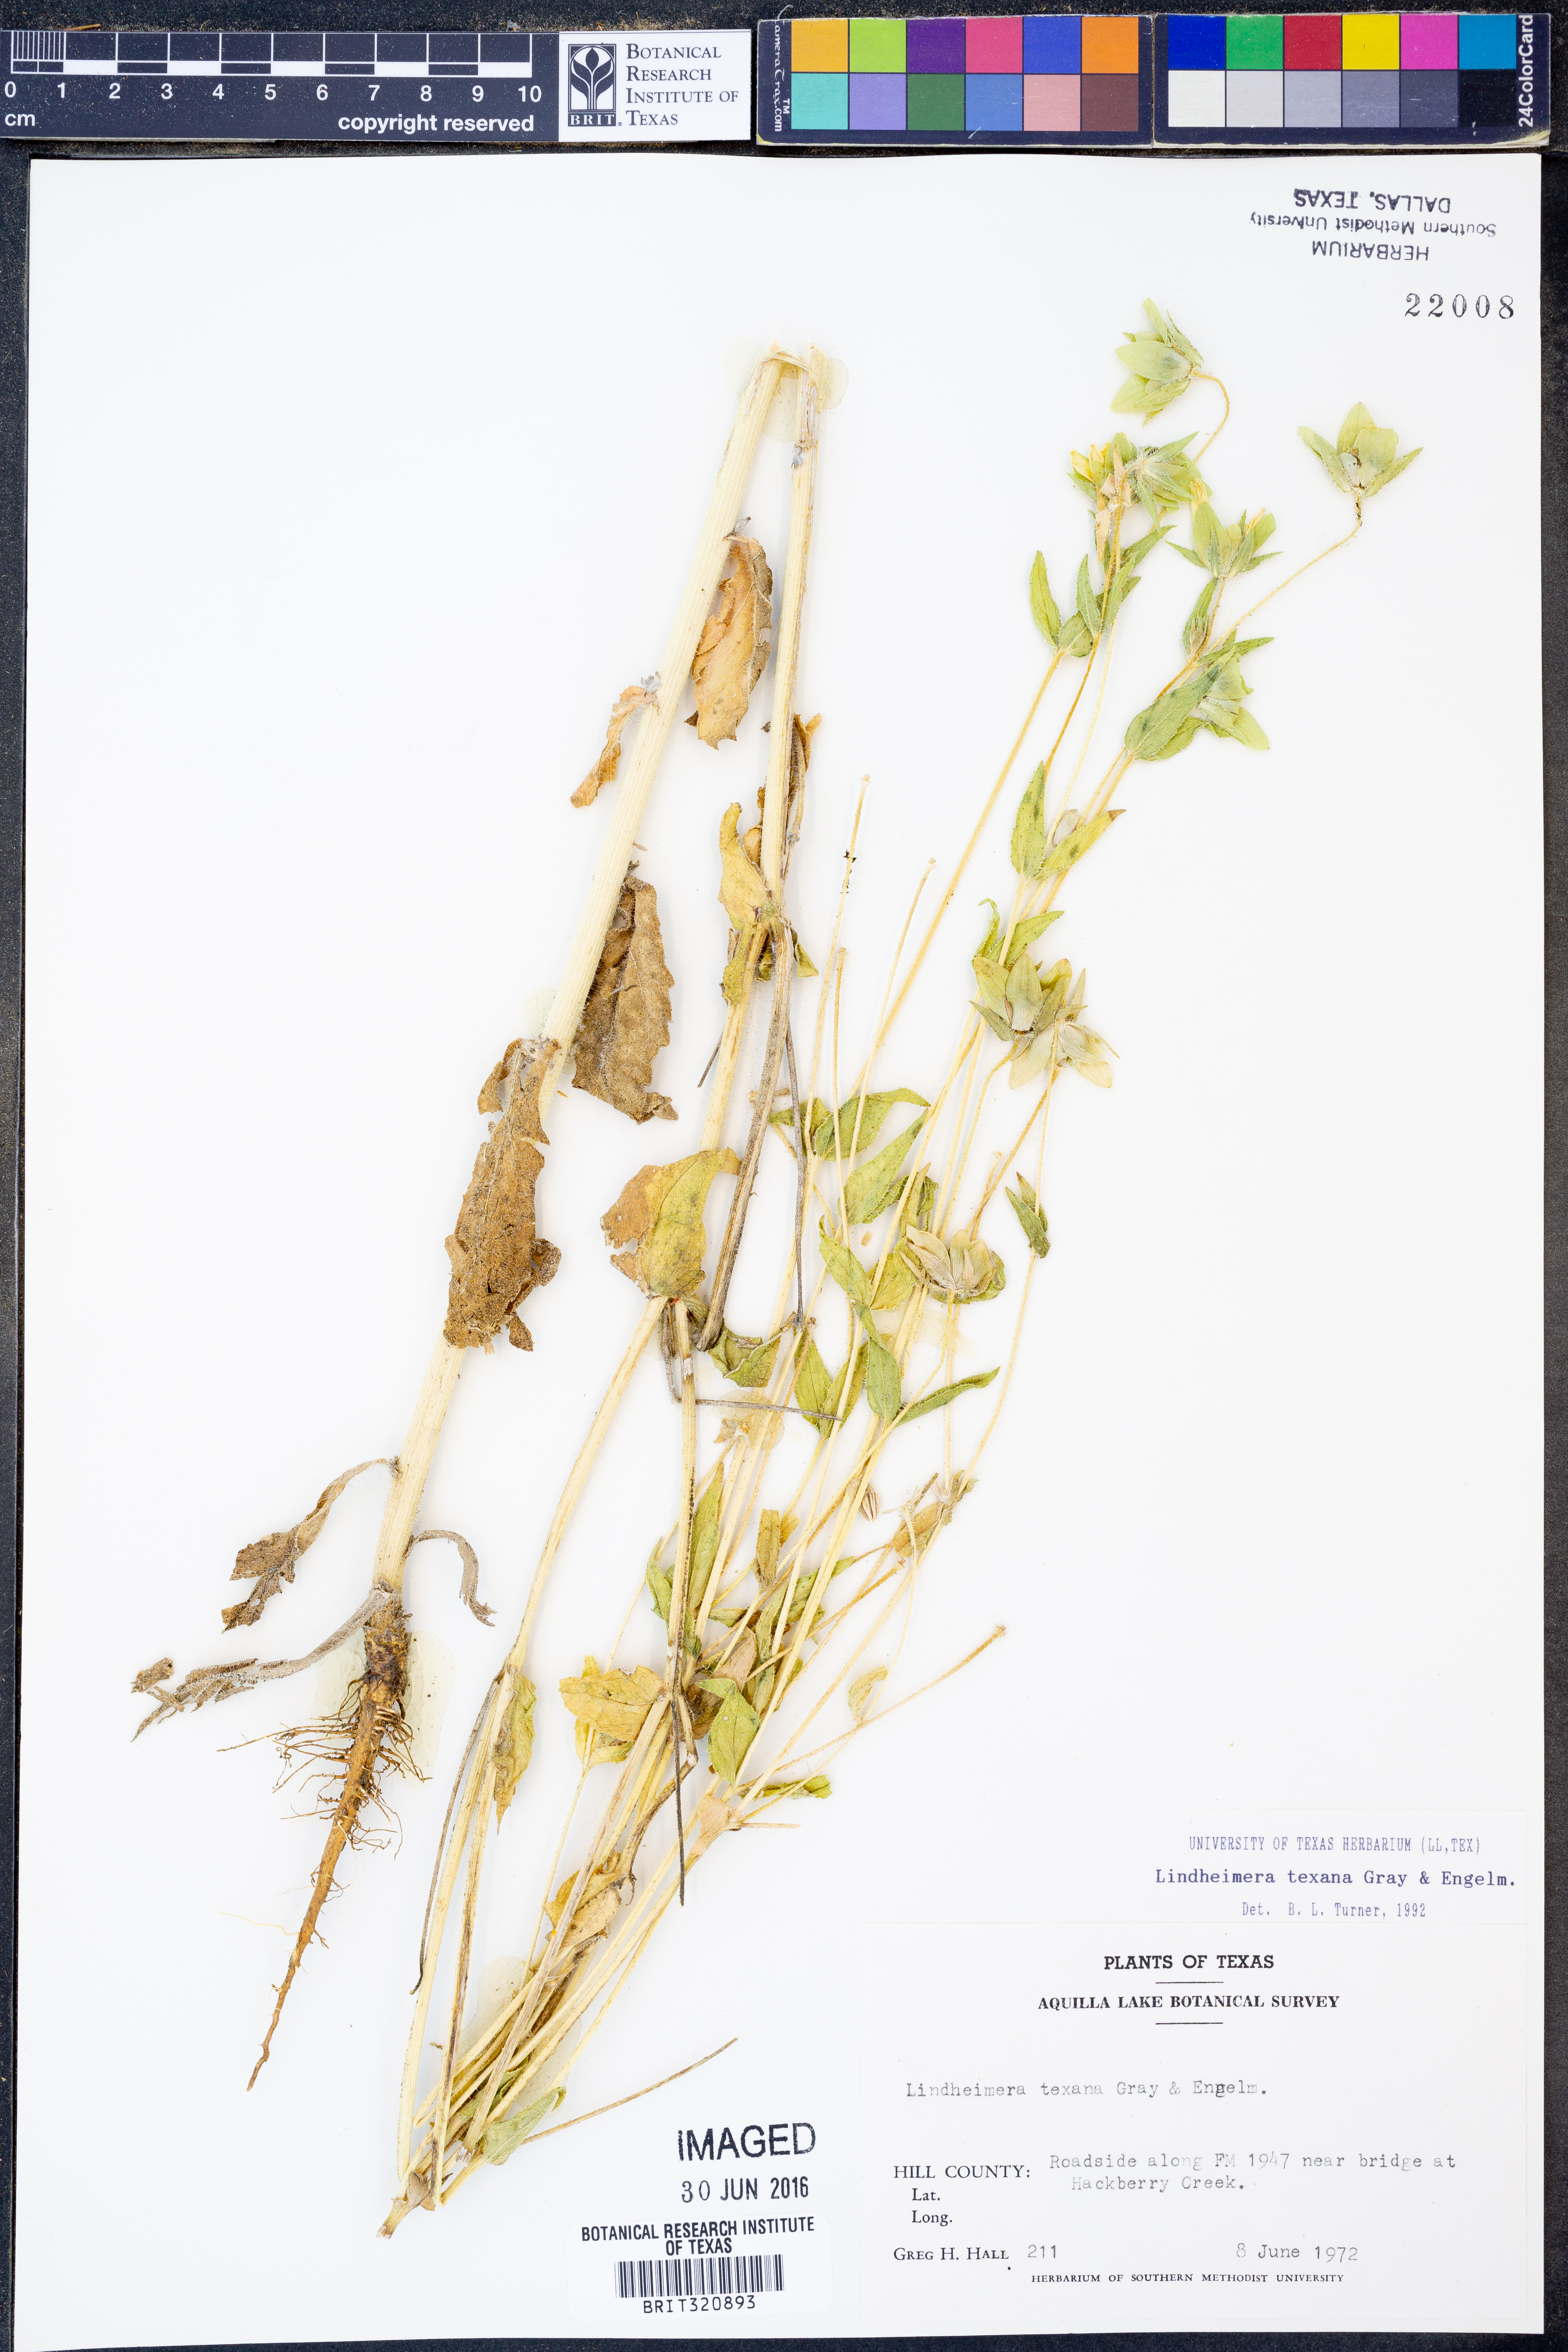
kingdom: Plantae
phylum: Tracheophyta
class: Magnoliopsida
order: Asterales
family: Asteraceae
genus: Lindheimera
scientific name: Lindheimera texana
